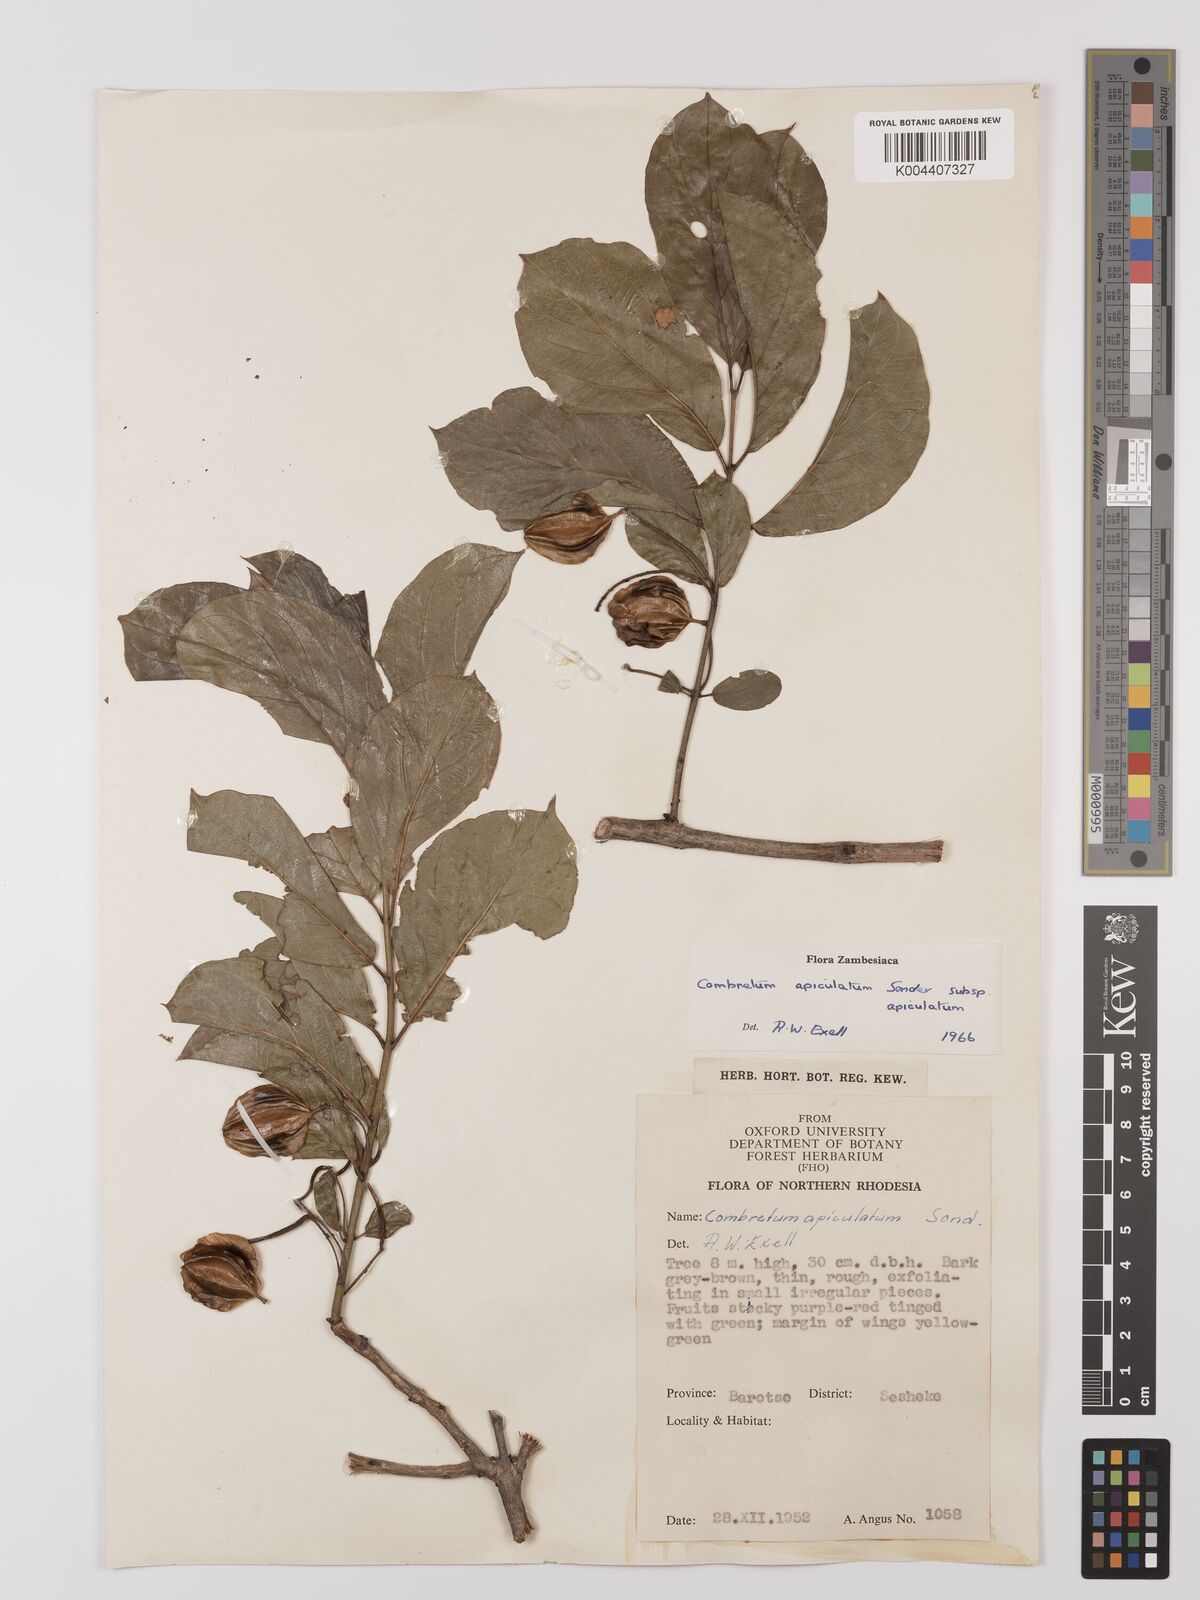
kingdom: Plantae
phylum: Tracheophyta
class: Magnoliopsida
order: Myrtales
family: Combretaceae
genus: Combretum
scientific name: Combretum apiculatum
